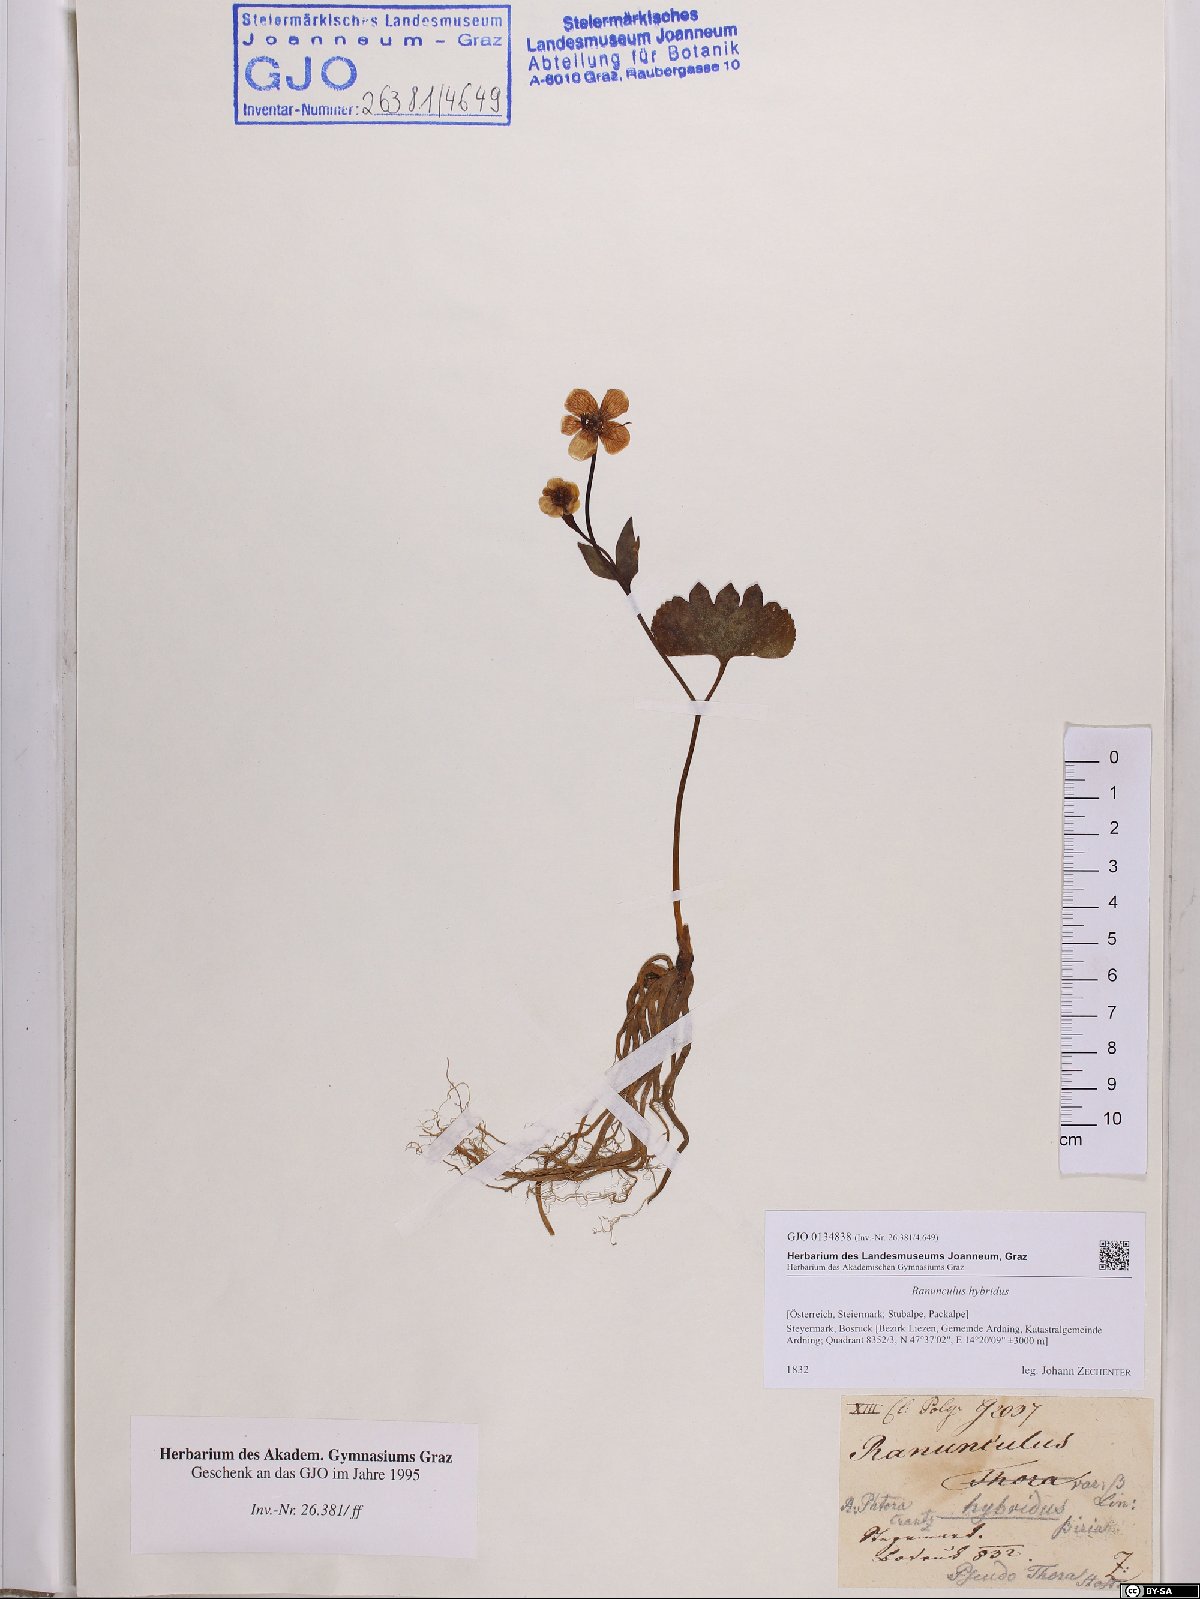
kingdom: Plantae
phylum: Tracheophyta
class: Magnoliopsida
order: Ranunculales
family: Ranunculaceae
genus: Ranunculus
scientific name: Ranunculus hybridus
